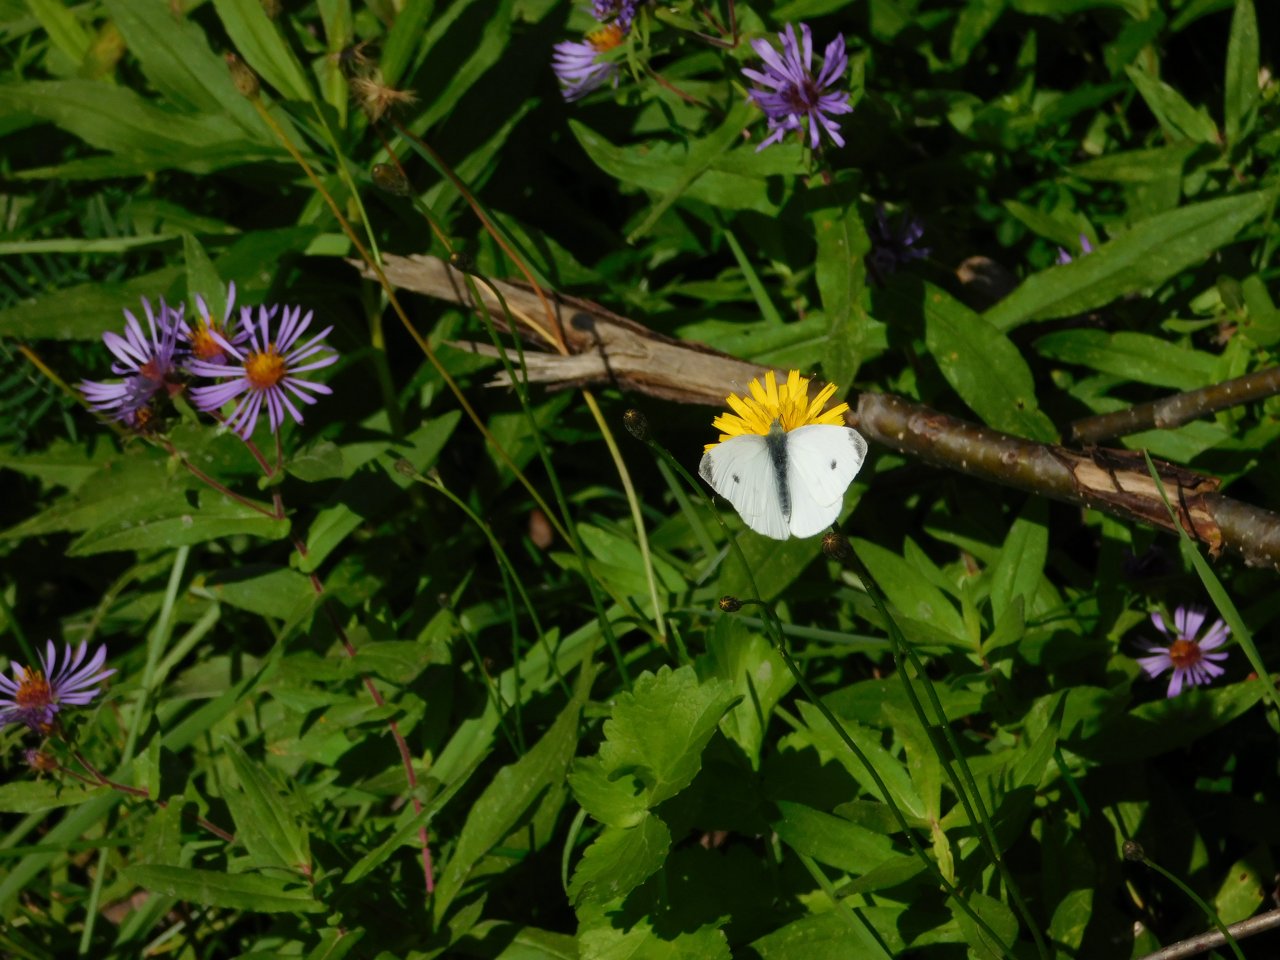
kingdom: Animalia
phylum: Arthropoda
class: Insecta
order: Lepidoptera
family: Pieridae
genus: Pieris
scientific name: Pieris rapae
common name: Cabbage White
